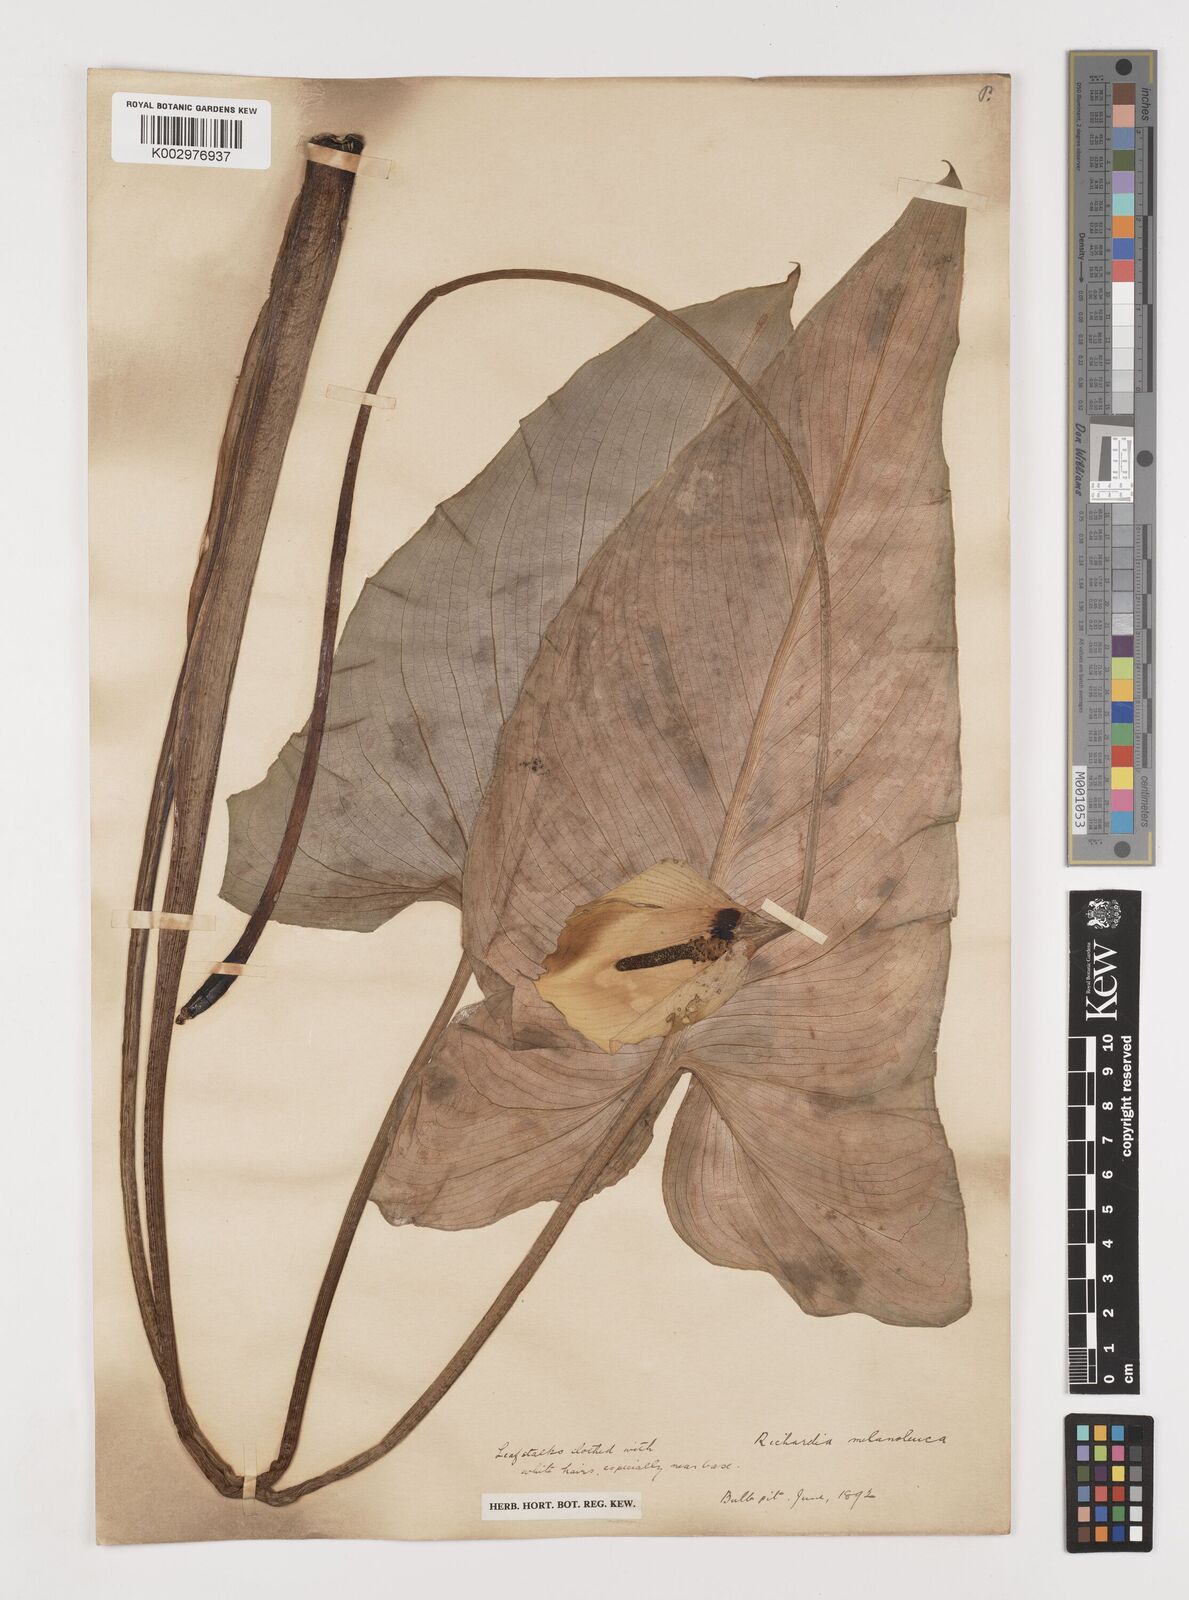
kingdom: Plantae
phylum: Tracheophyta
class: Liliopsida
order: Alismatales
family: Araceae
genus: Zantedeschia
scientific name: Zantedeschia albomaculata
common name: Spotted calla lily
